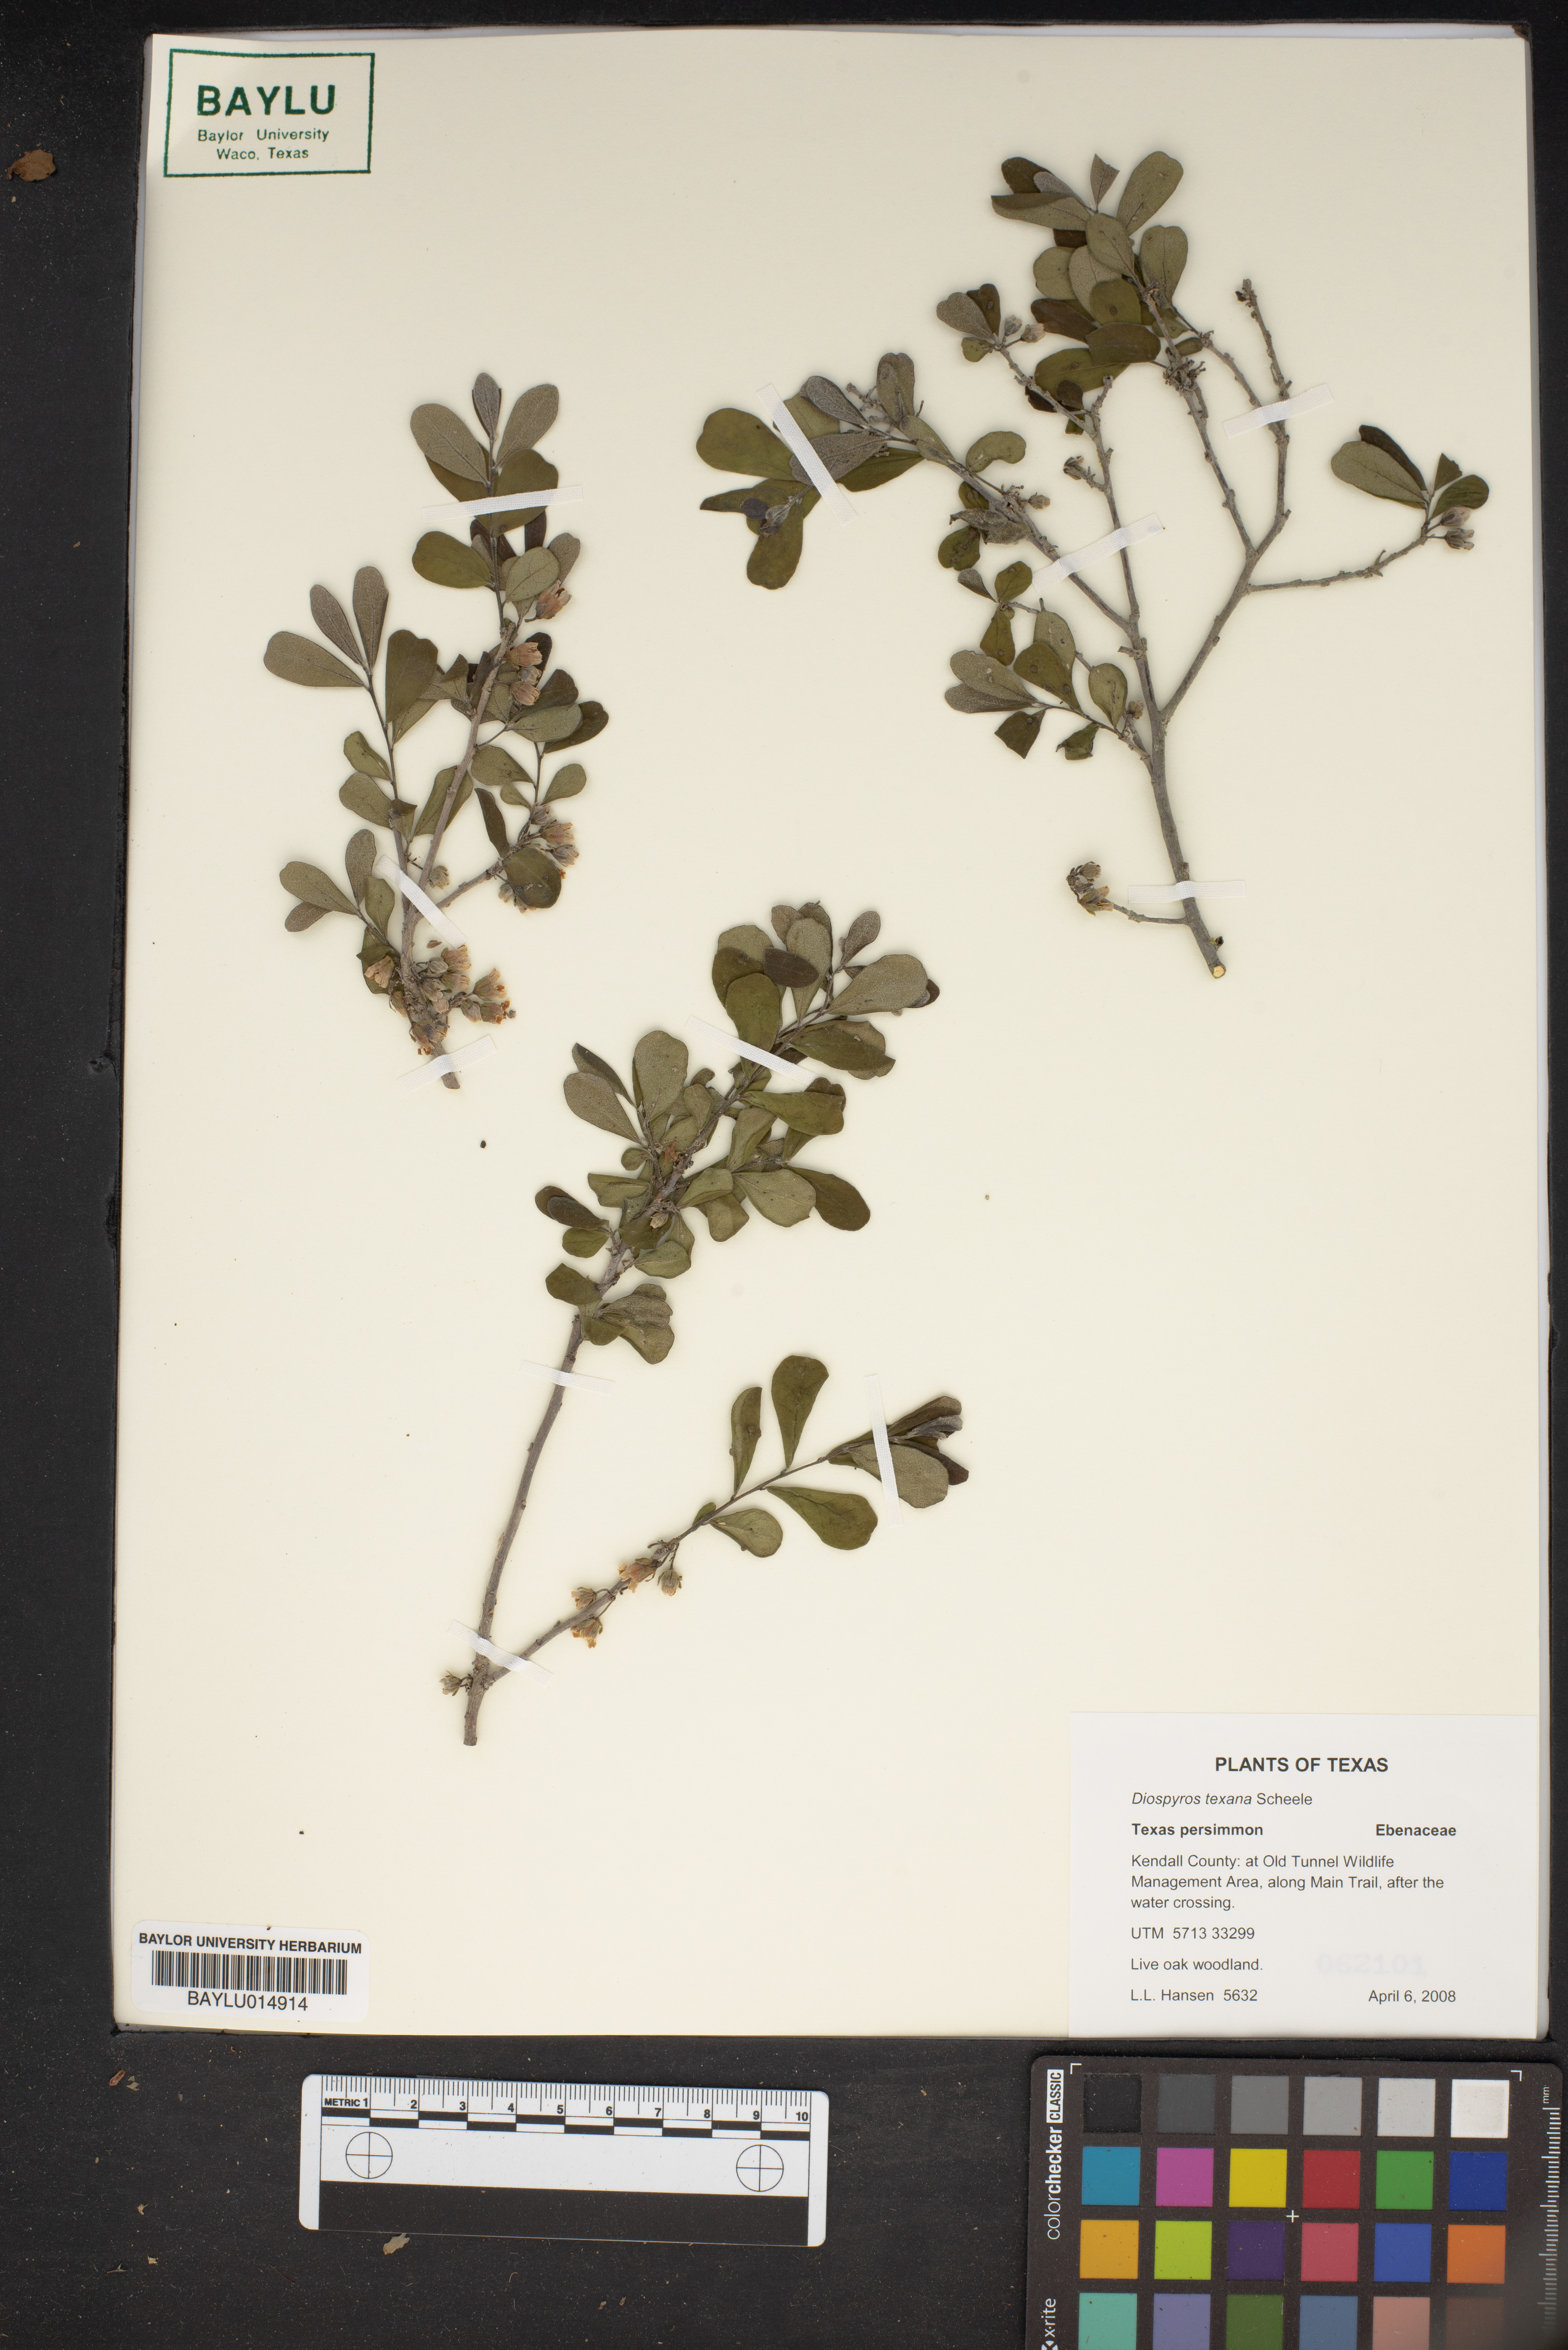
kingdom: Plantae
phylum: Tracheophyta
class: Magnoliopsida
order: Ericales
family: Ebenaceae
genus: Diospyros
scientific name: Diospyros texana
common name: Texas persimmon
